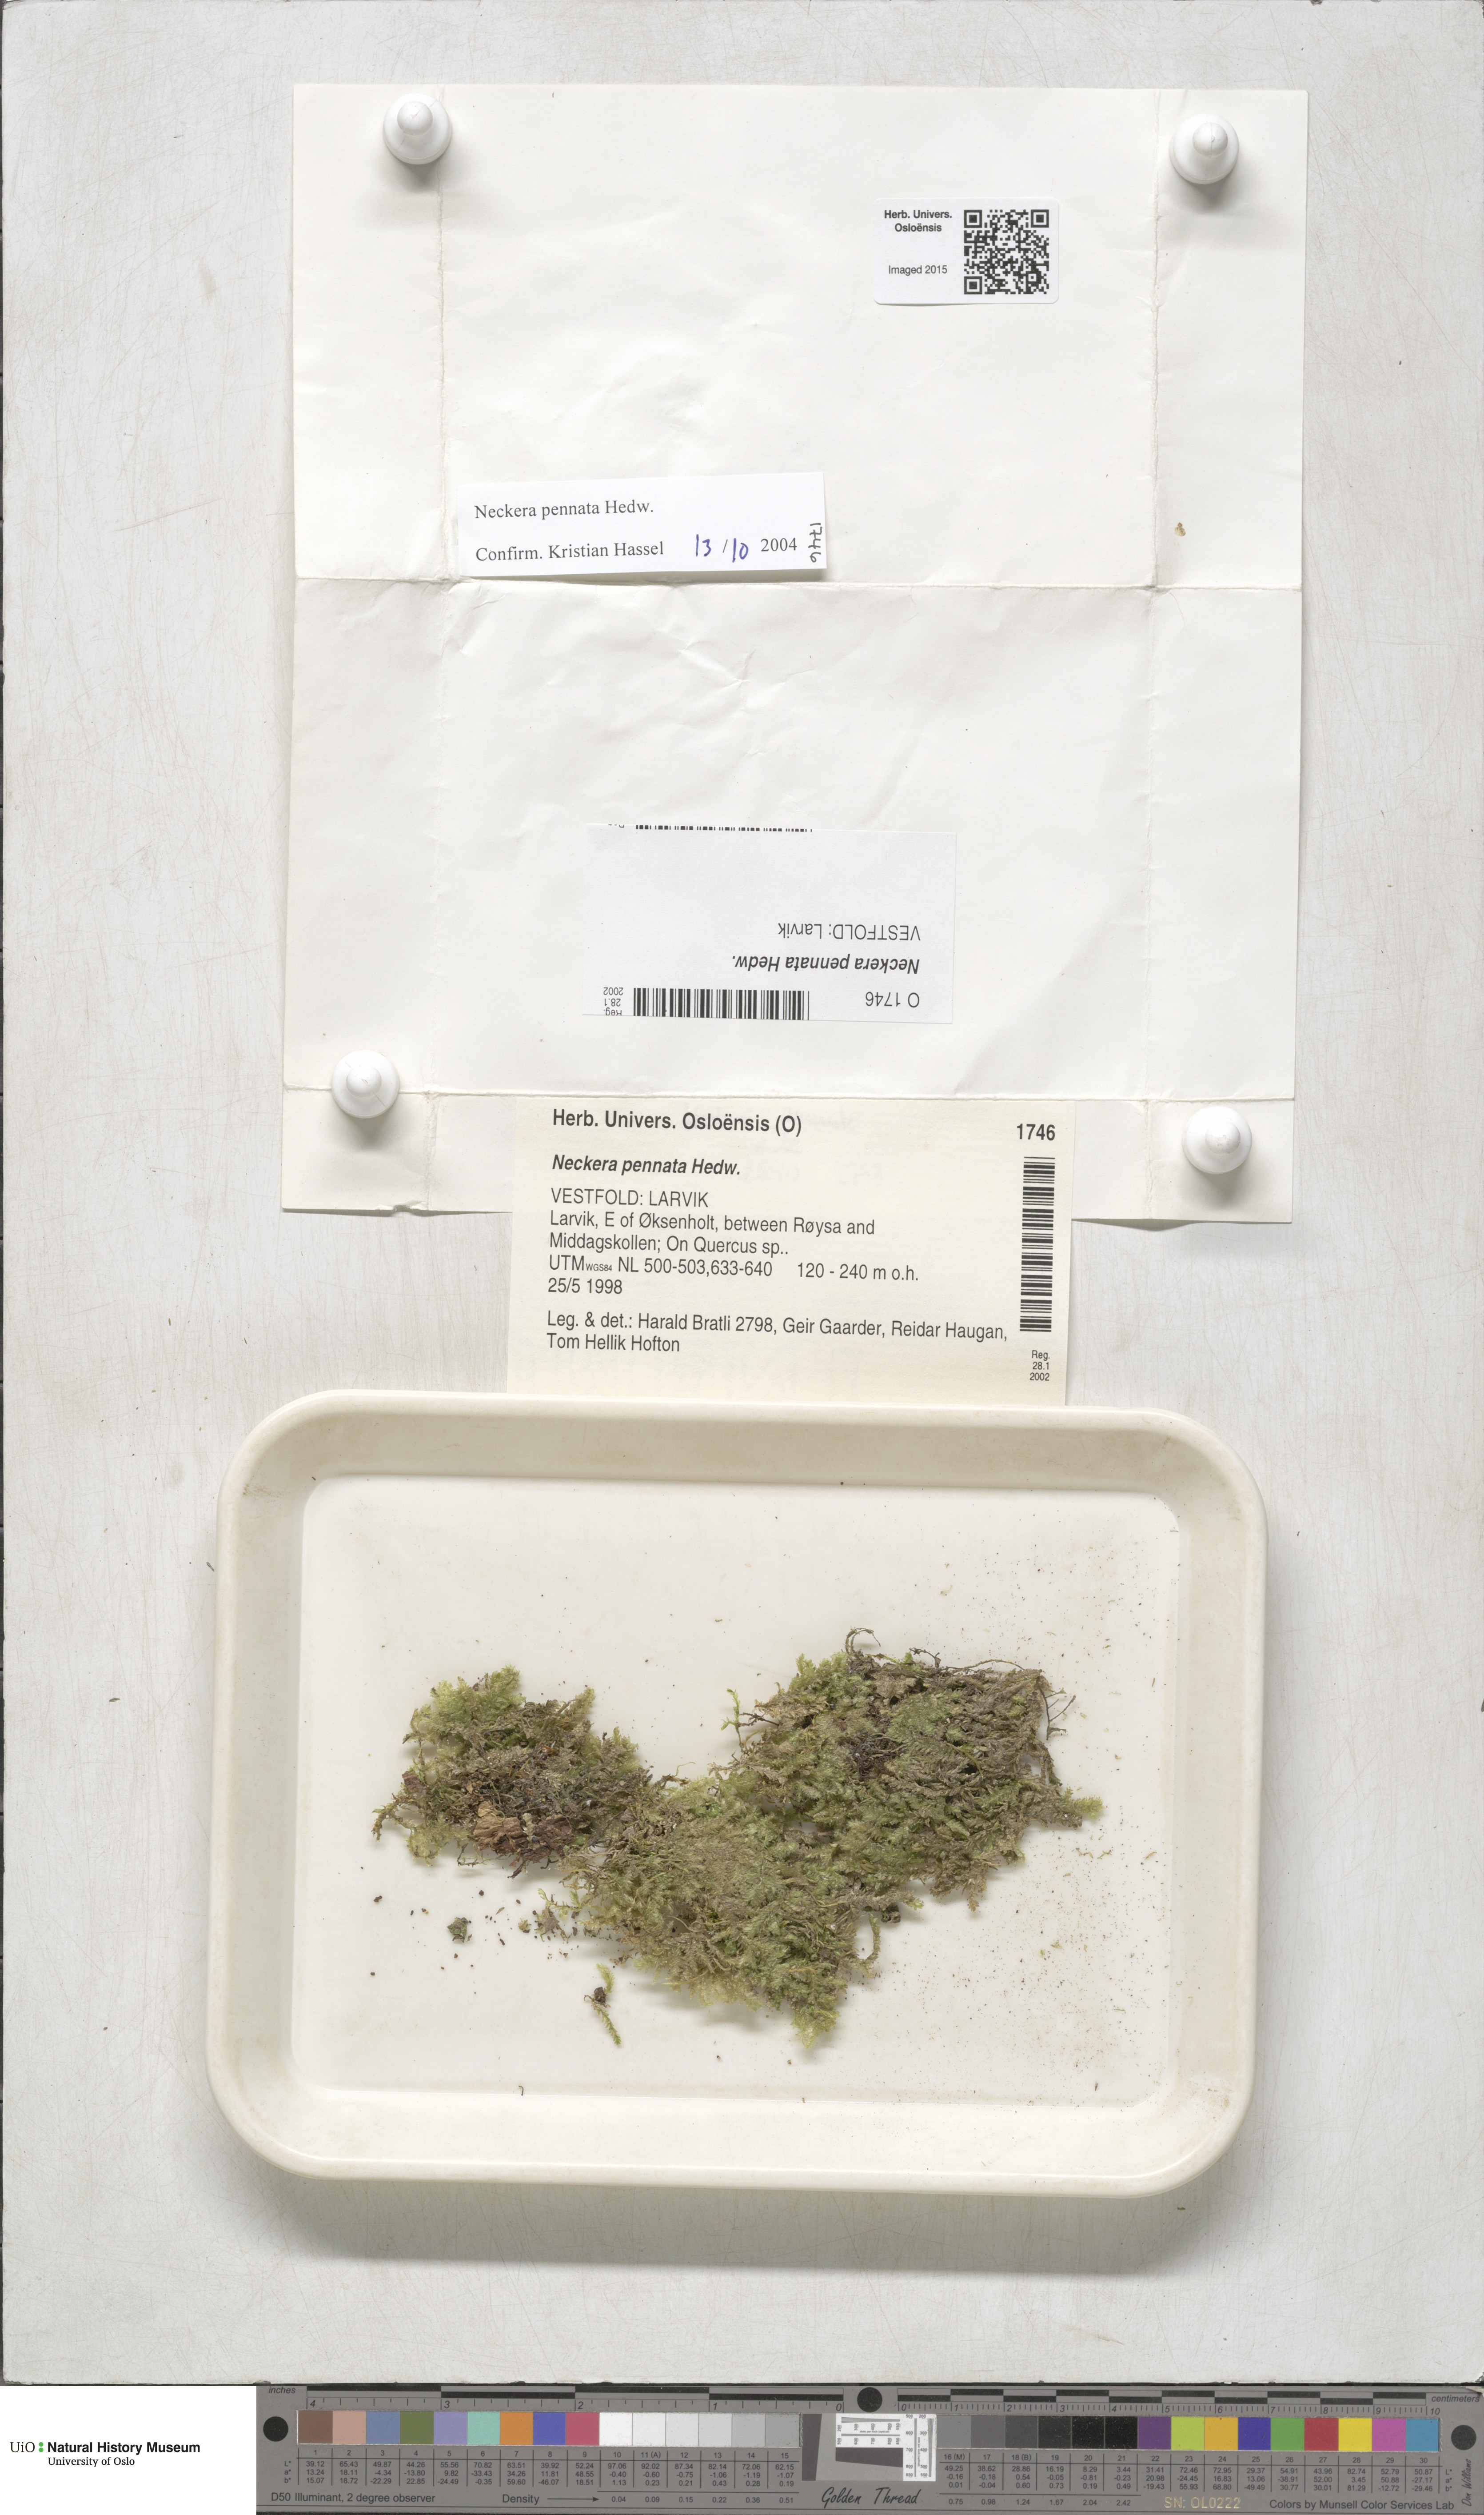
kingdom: Plantae
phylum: Bryophyta
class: Bryopsida
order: Hypnales
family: Neckeraceae
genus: Neckera
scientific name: Neckera pennata
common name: Feathery neckera
